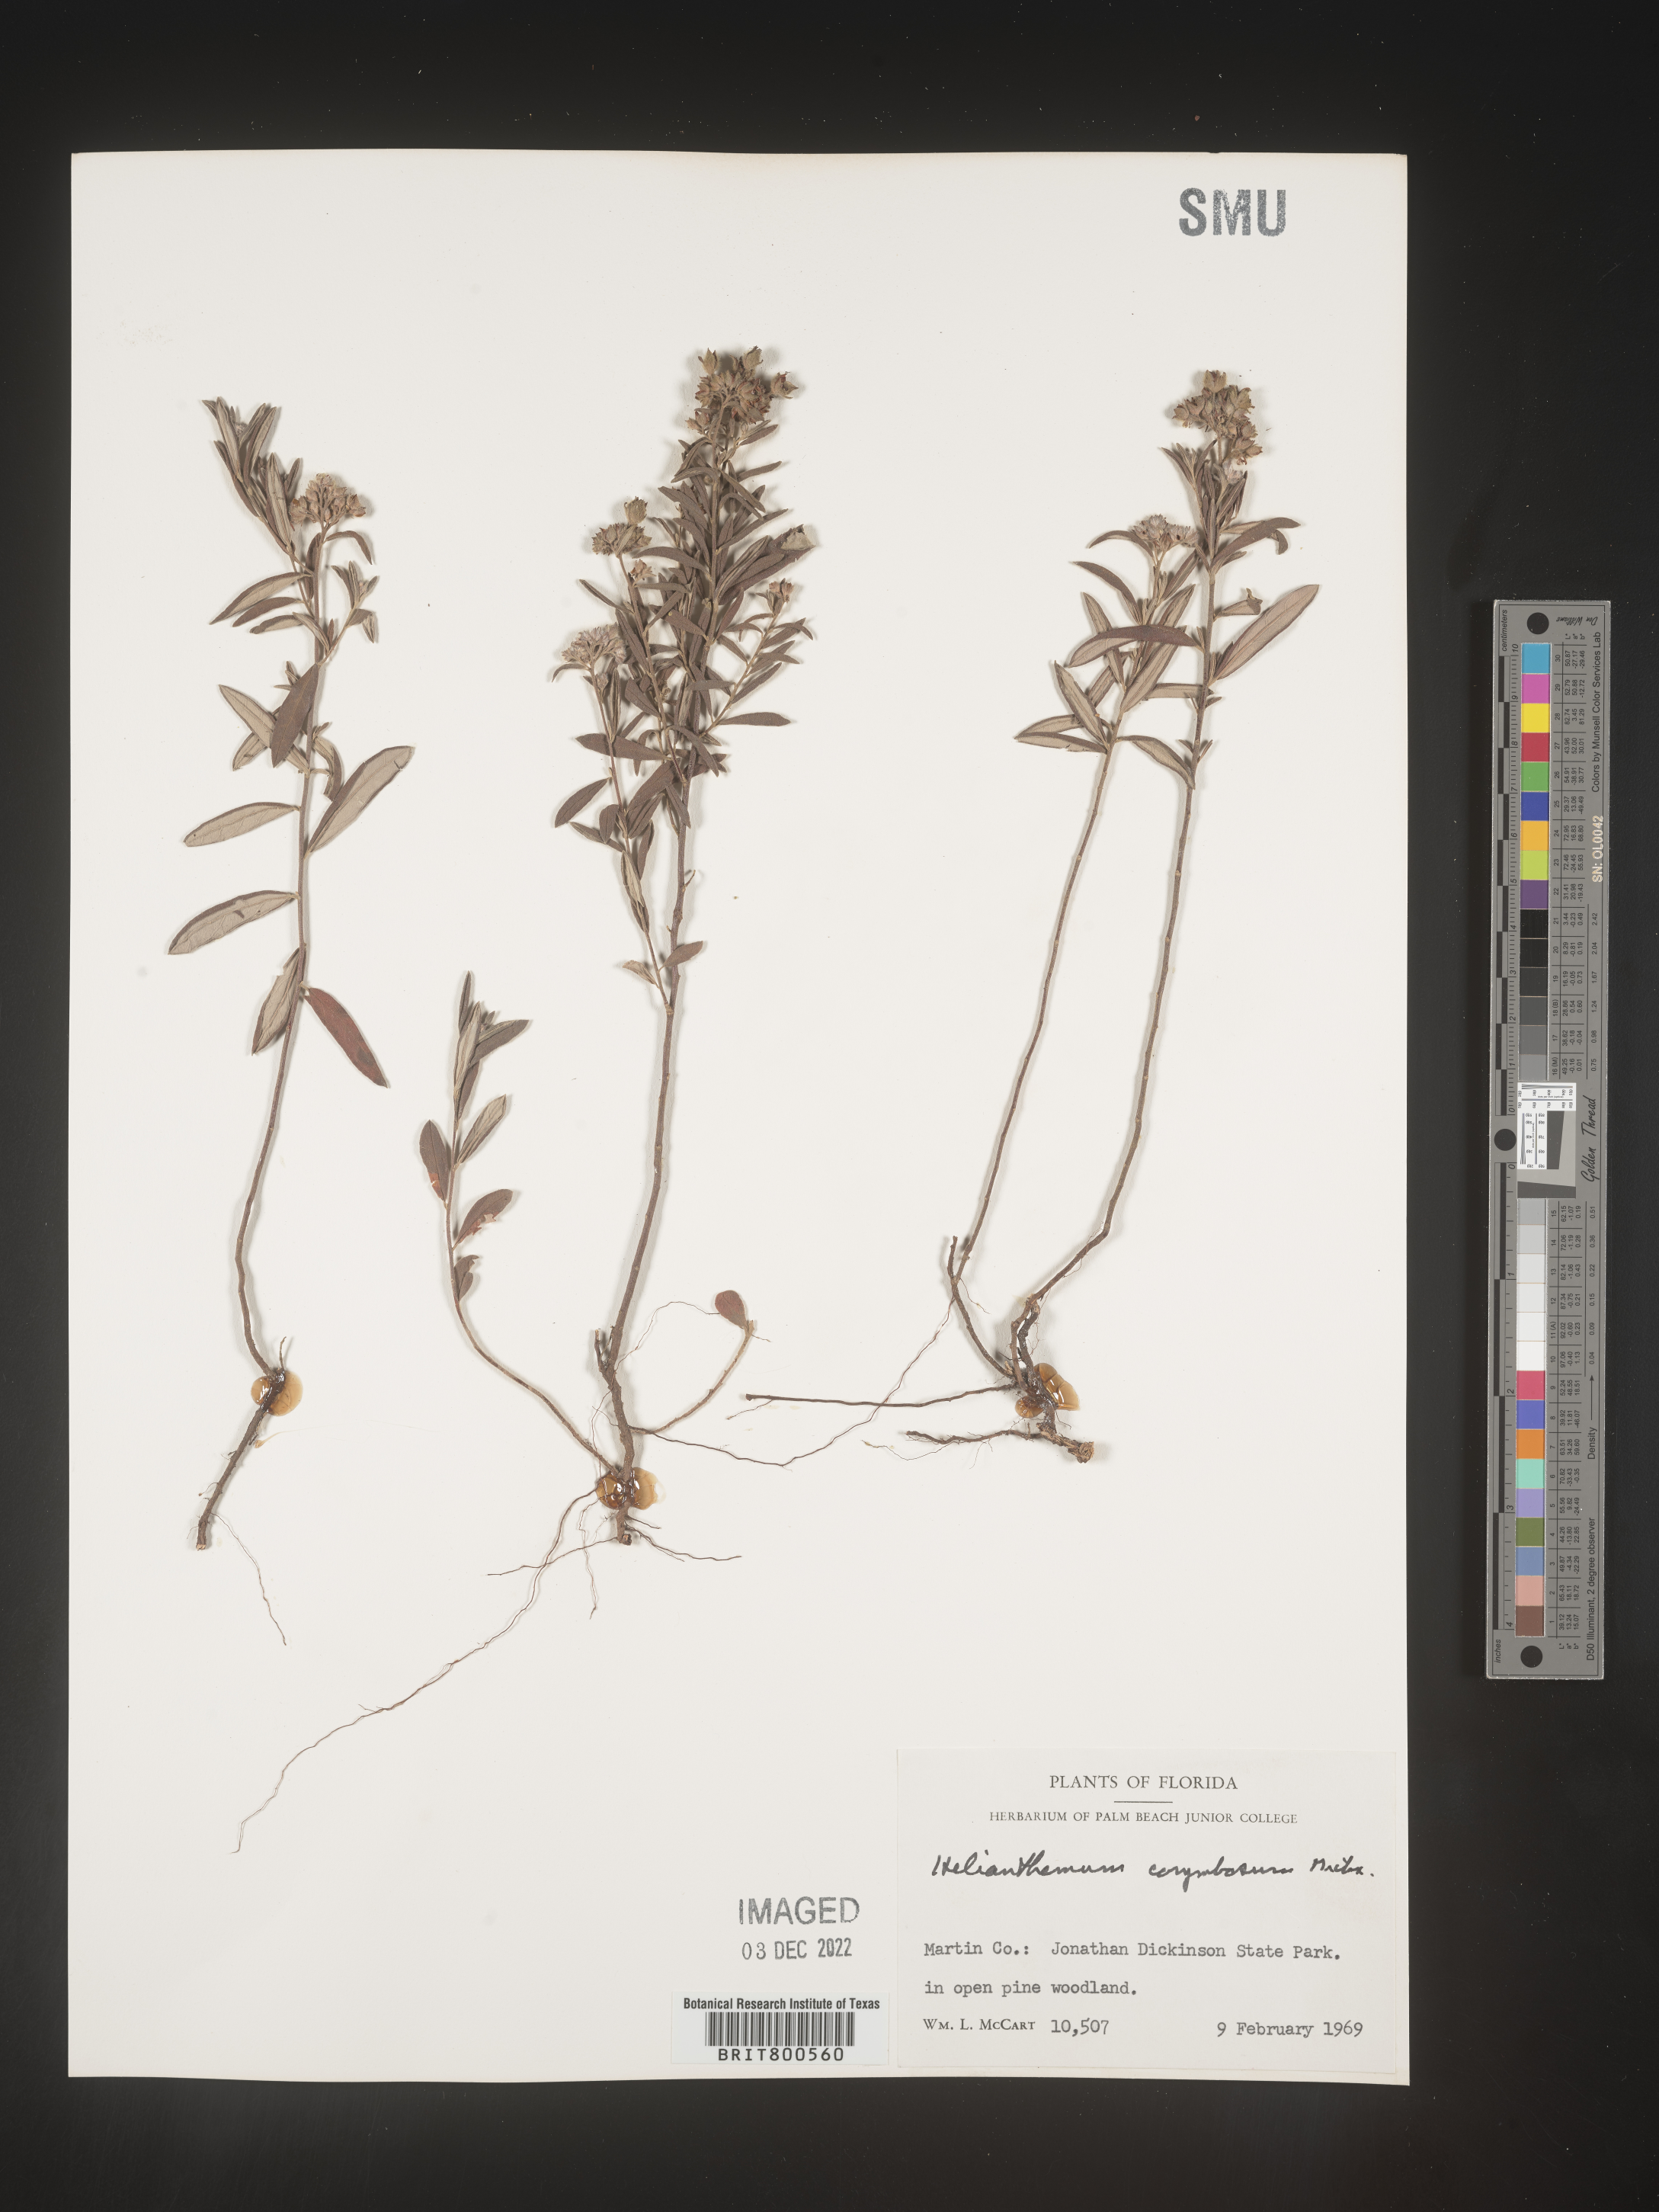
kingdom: Plantae
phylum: Tracheophyta
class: Magnoliopsida
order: Malvales
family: Cistaceae
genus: Crocanthemum
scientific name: Crocanthemum corymbosum
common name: Pinebarren sun-rose
